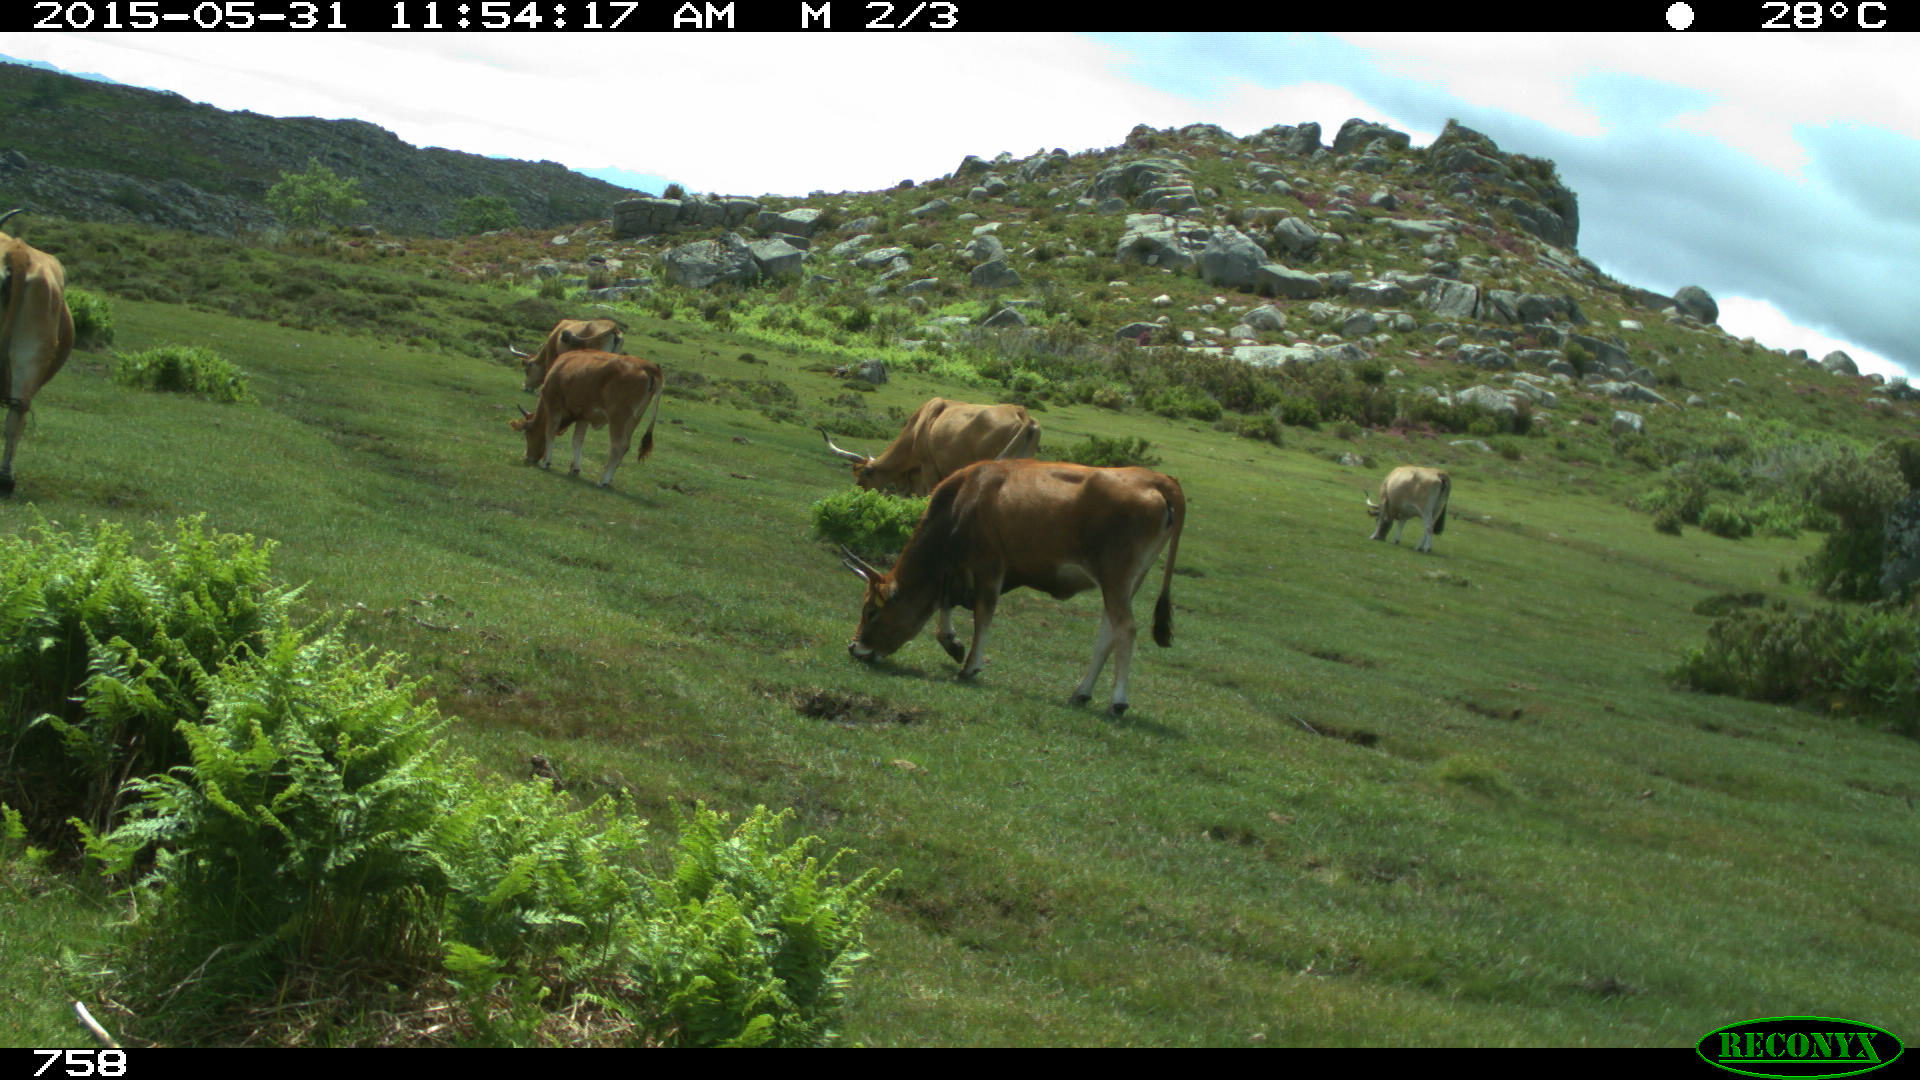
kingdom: Animalia
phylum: Chordata
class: Mammalia
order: Artiodactyla
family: Bovidae
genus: Bos
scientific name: Bos taurus
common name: Domesticated cattle
